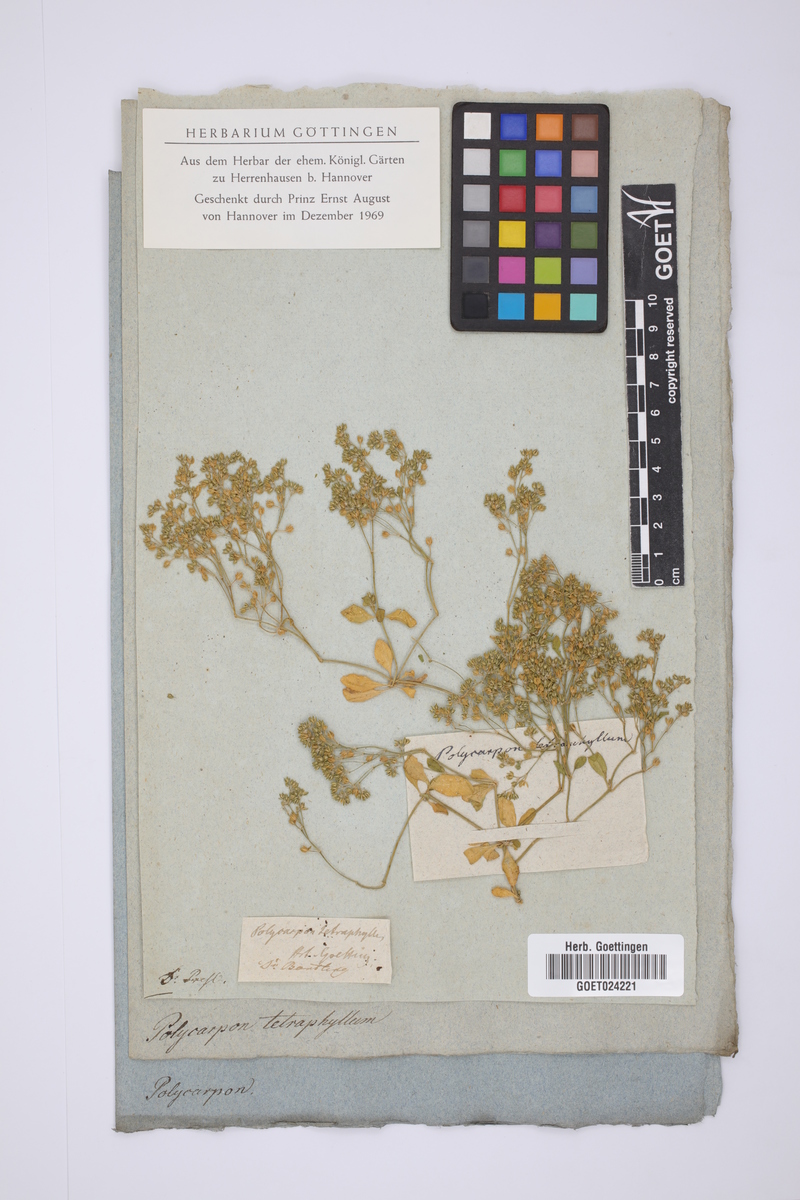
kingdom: Plantae
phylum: Tracheophyta
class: Magnoliopsida
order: Caryophyllales
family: Caryophyllaceae
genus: Polycarpon
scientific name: Polycarpon tetraphyllum
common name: Four-leaved all-seed
